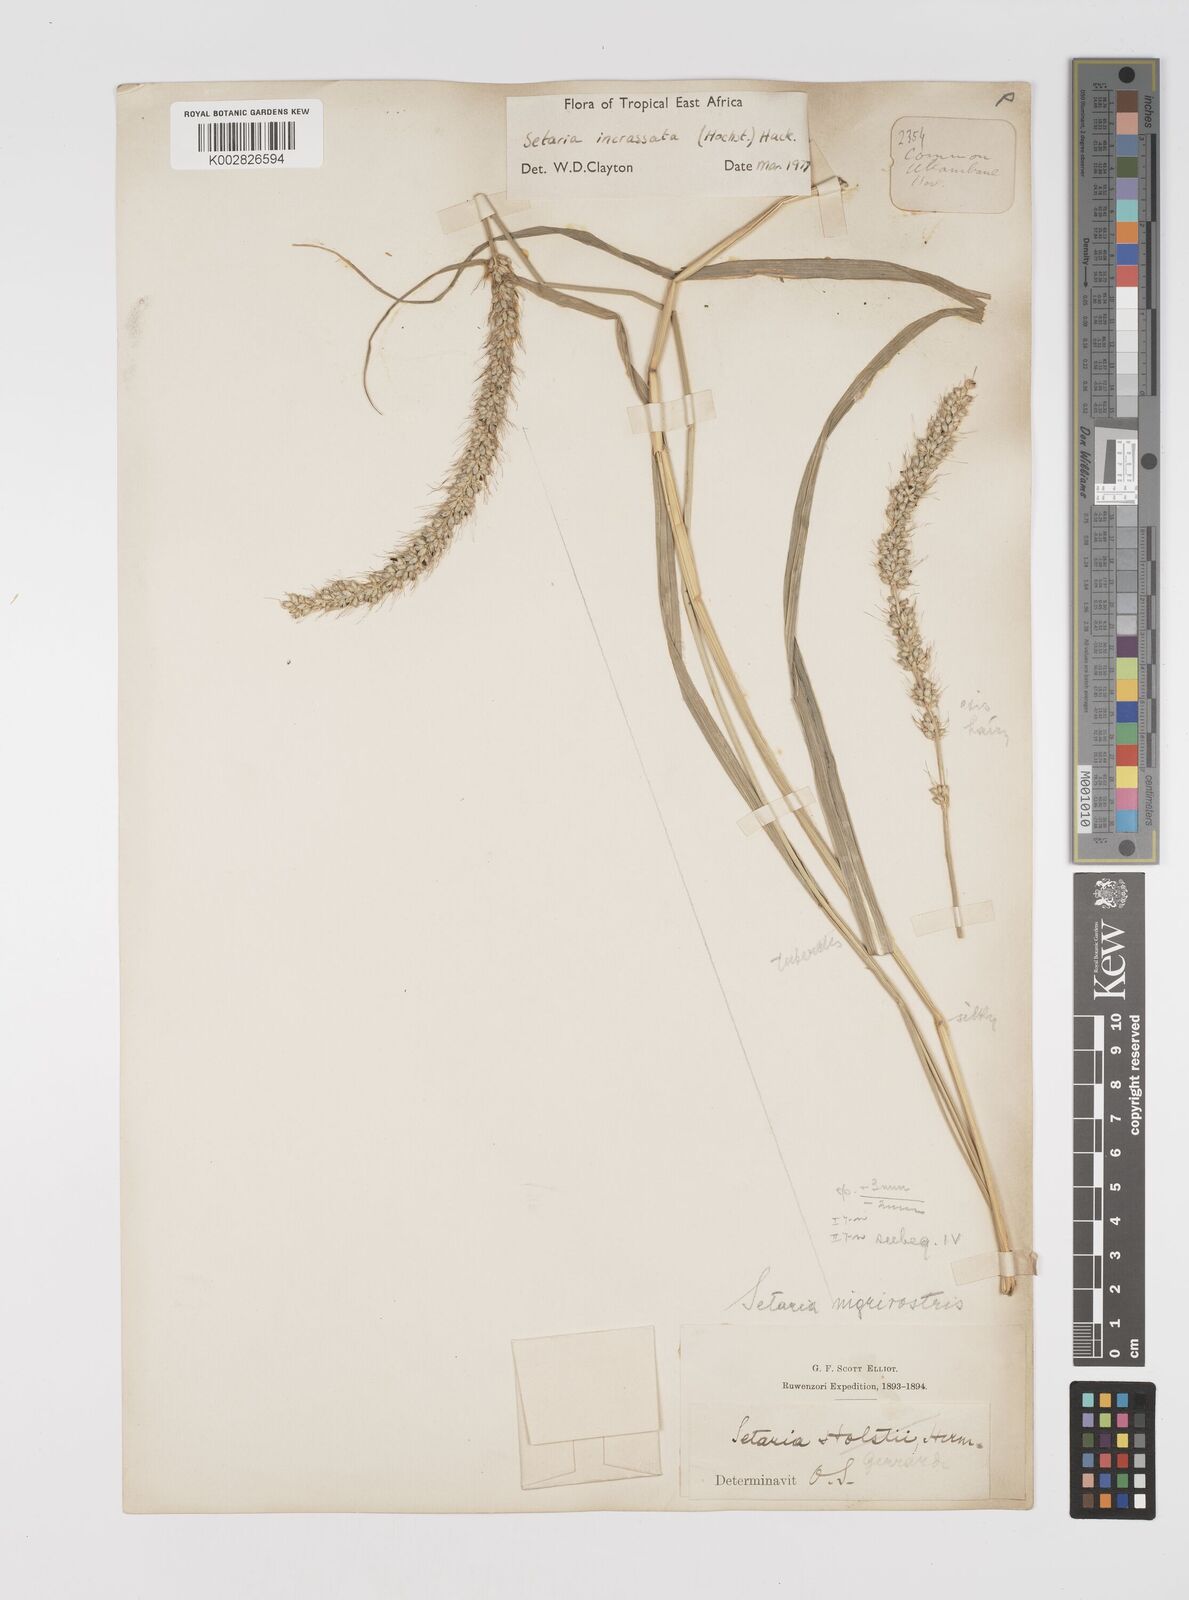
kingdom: Plantae
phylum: Tracheophyta
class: Liliopsida
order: Poales
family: Poaceae
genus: Setaria
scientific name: Setaria incrassata
